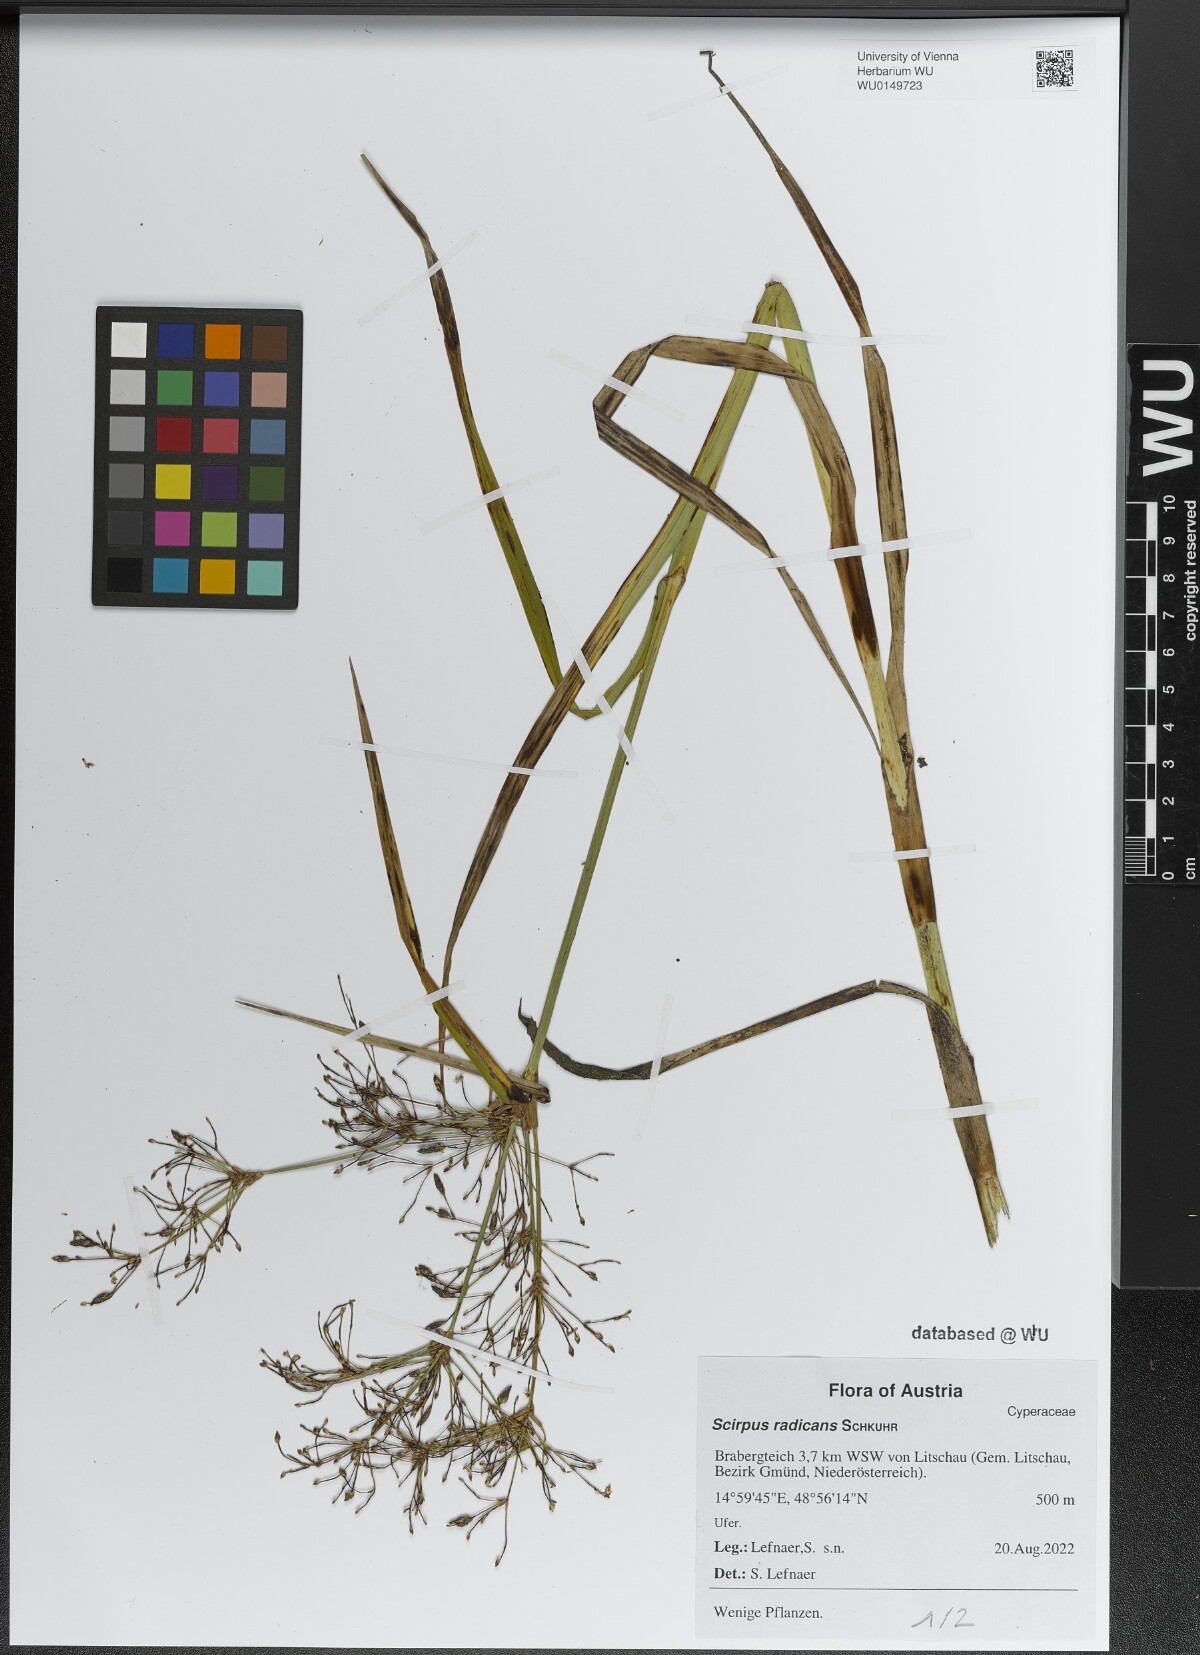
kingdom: Plantae
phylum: Tracheophyta
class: Liliopsida
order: Poales
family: Cyperaceae
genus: Scirpus
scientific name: Scirpus radicans
